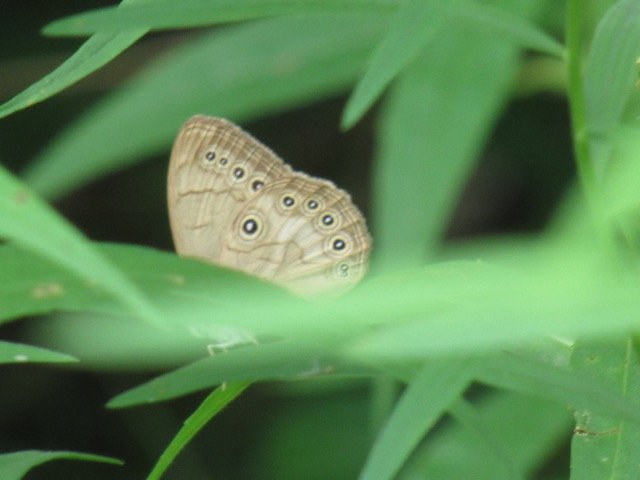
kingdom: Animalia
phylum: Arthropoda
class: Insecta
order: Lepidoptera
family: Nymphalidae
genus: Lethe
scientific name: Lethe eurydice
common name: Appalachian Eyed Brown
